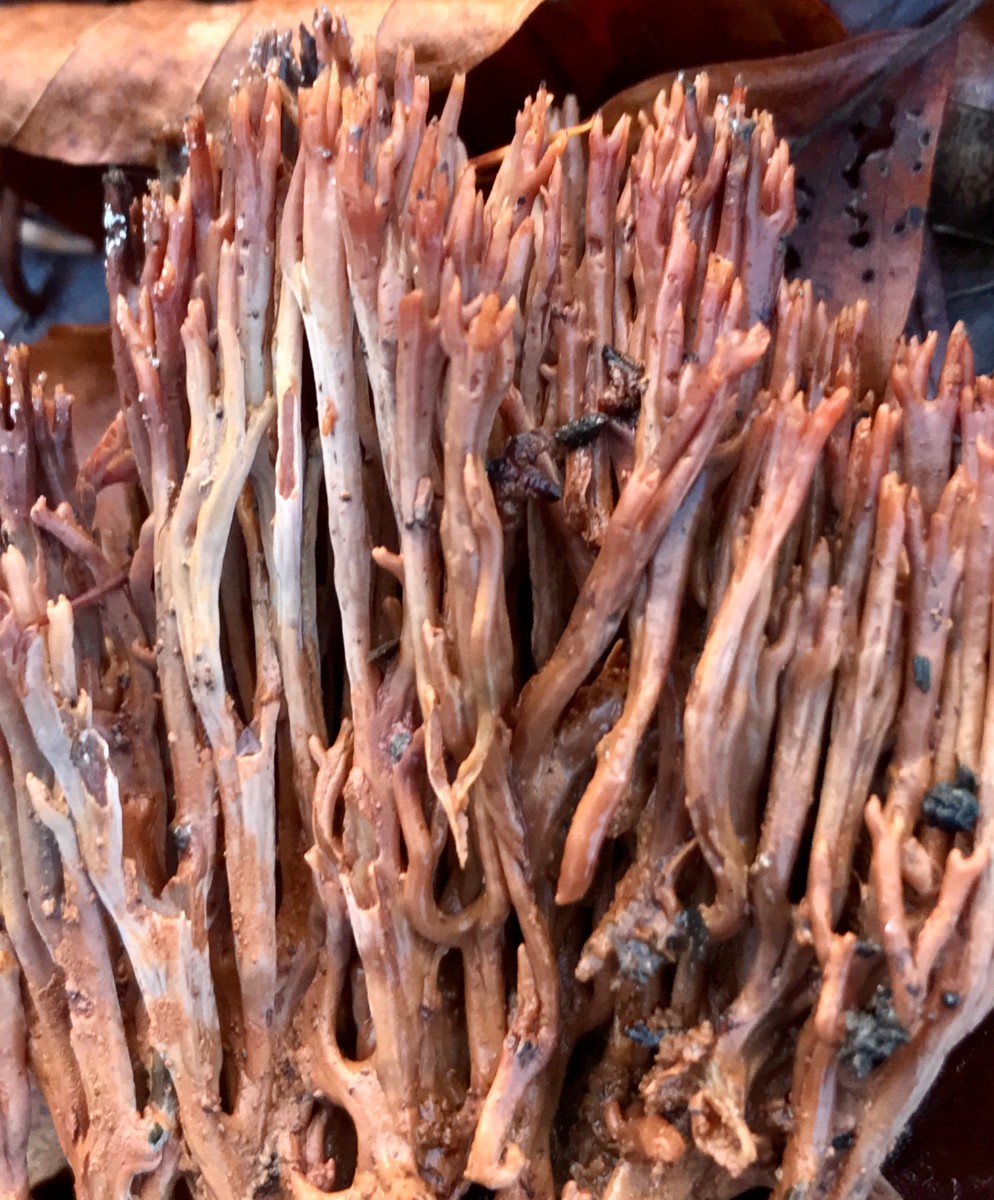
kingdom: Fungi
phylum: Basidiomycota
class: Agaricomycetes
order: Gomphales
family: Gomphaceae
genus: Ramaria
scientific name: Ramaria stricta
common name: rank koralsvamp
